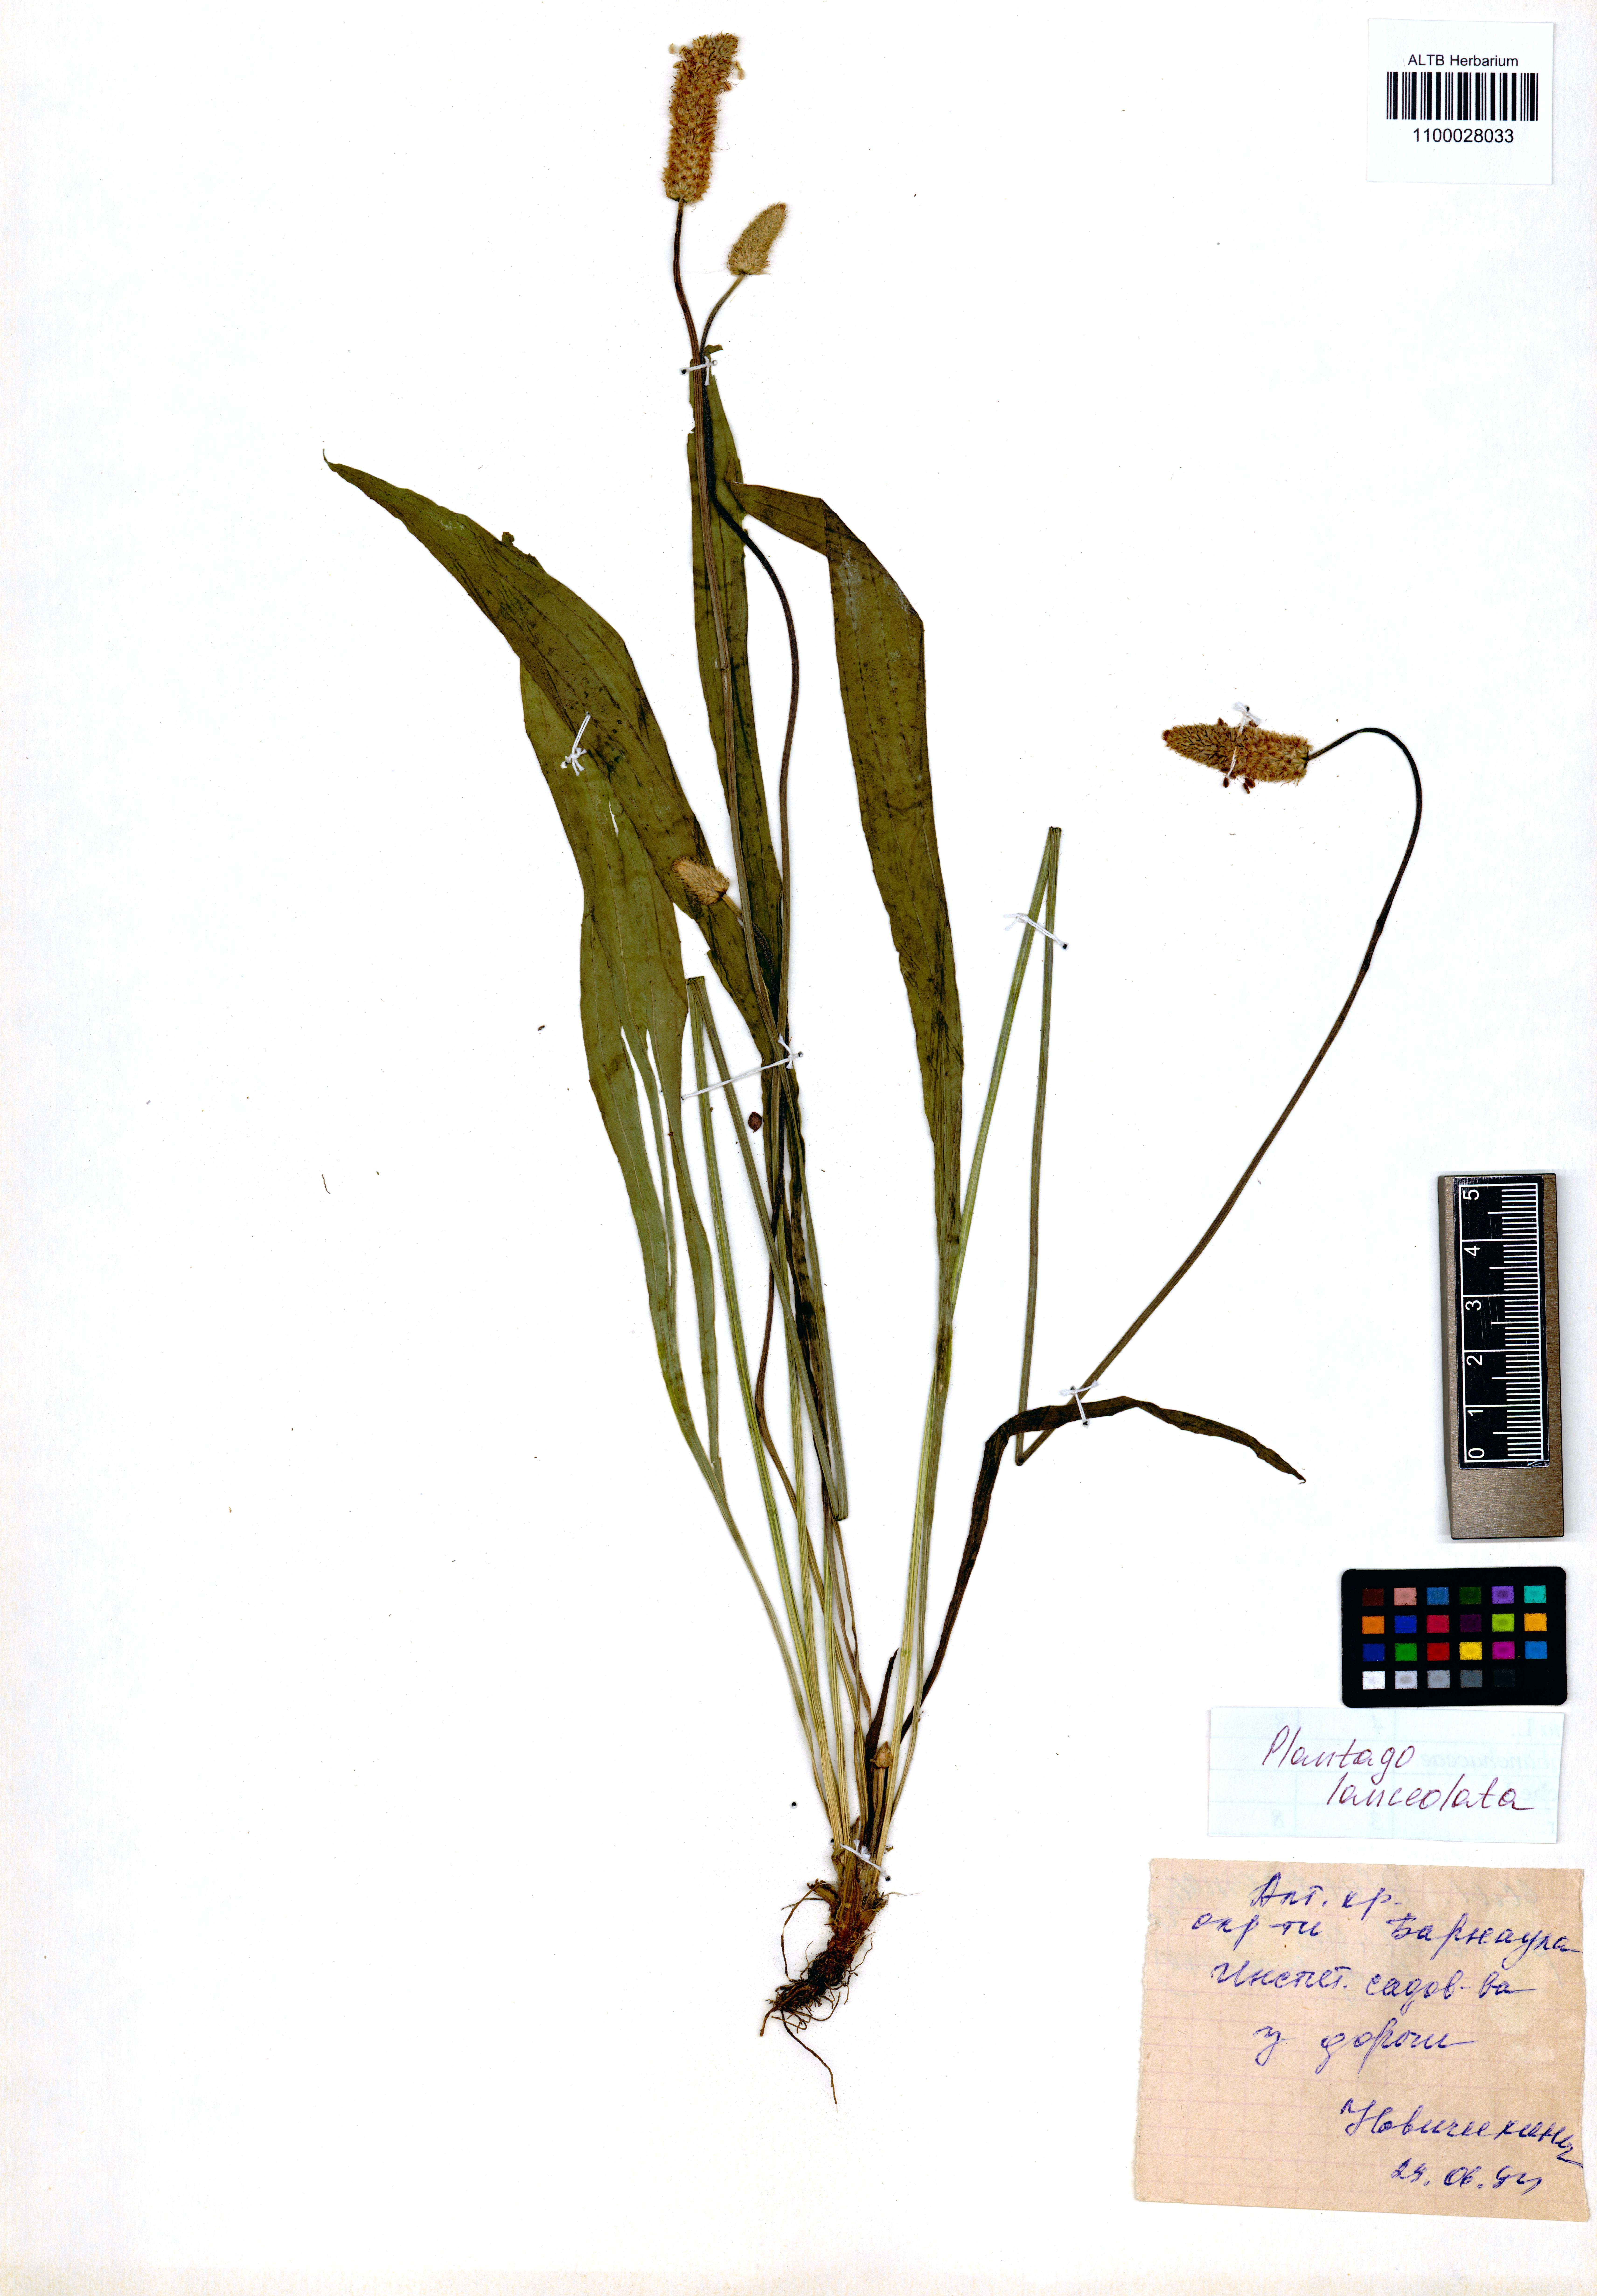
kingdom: Plantae
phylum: Tracheophyta
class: Magnoliopsida
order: Lamiales
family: Plantaginaceae
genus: Plantago
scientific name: Plantago lanceolata
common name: Ribwort plantain
